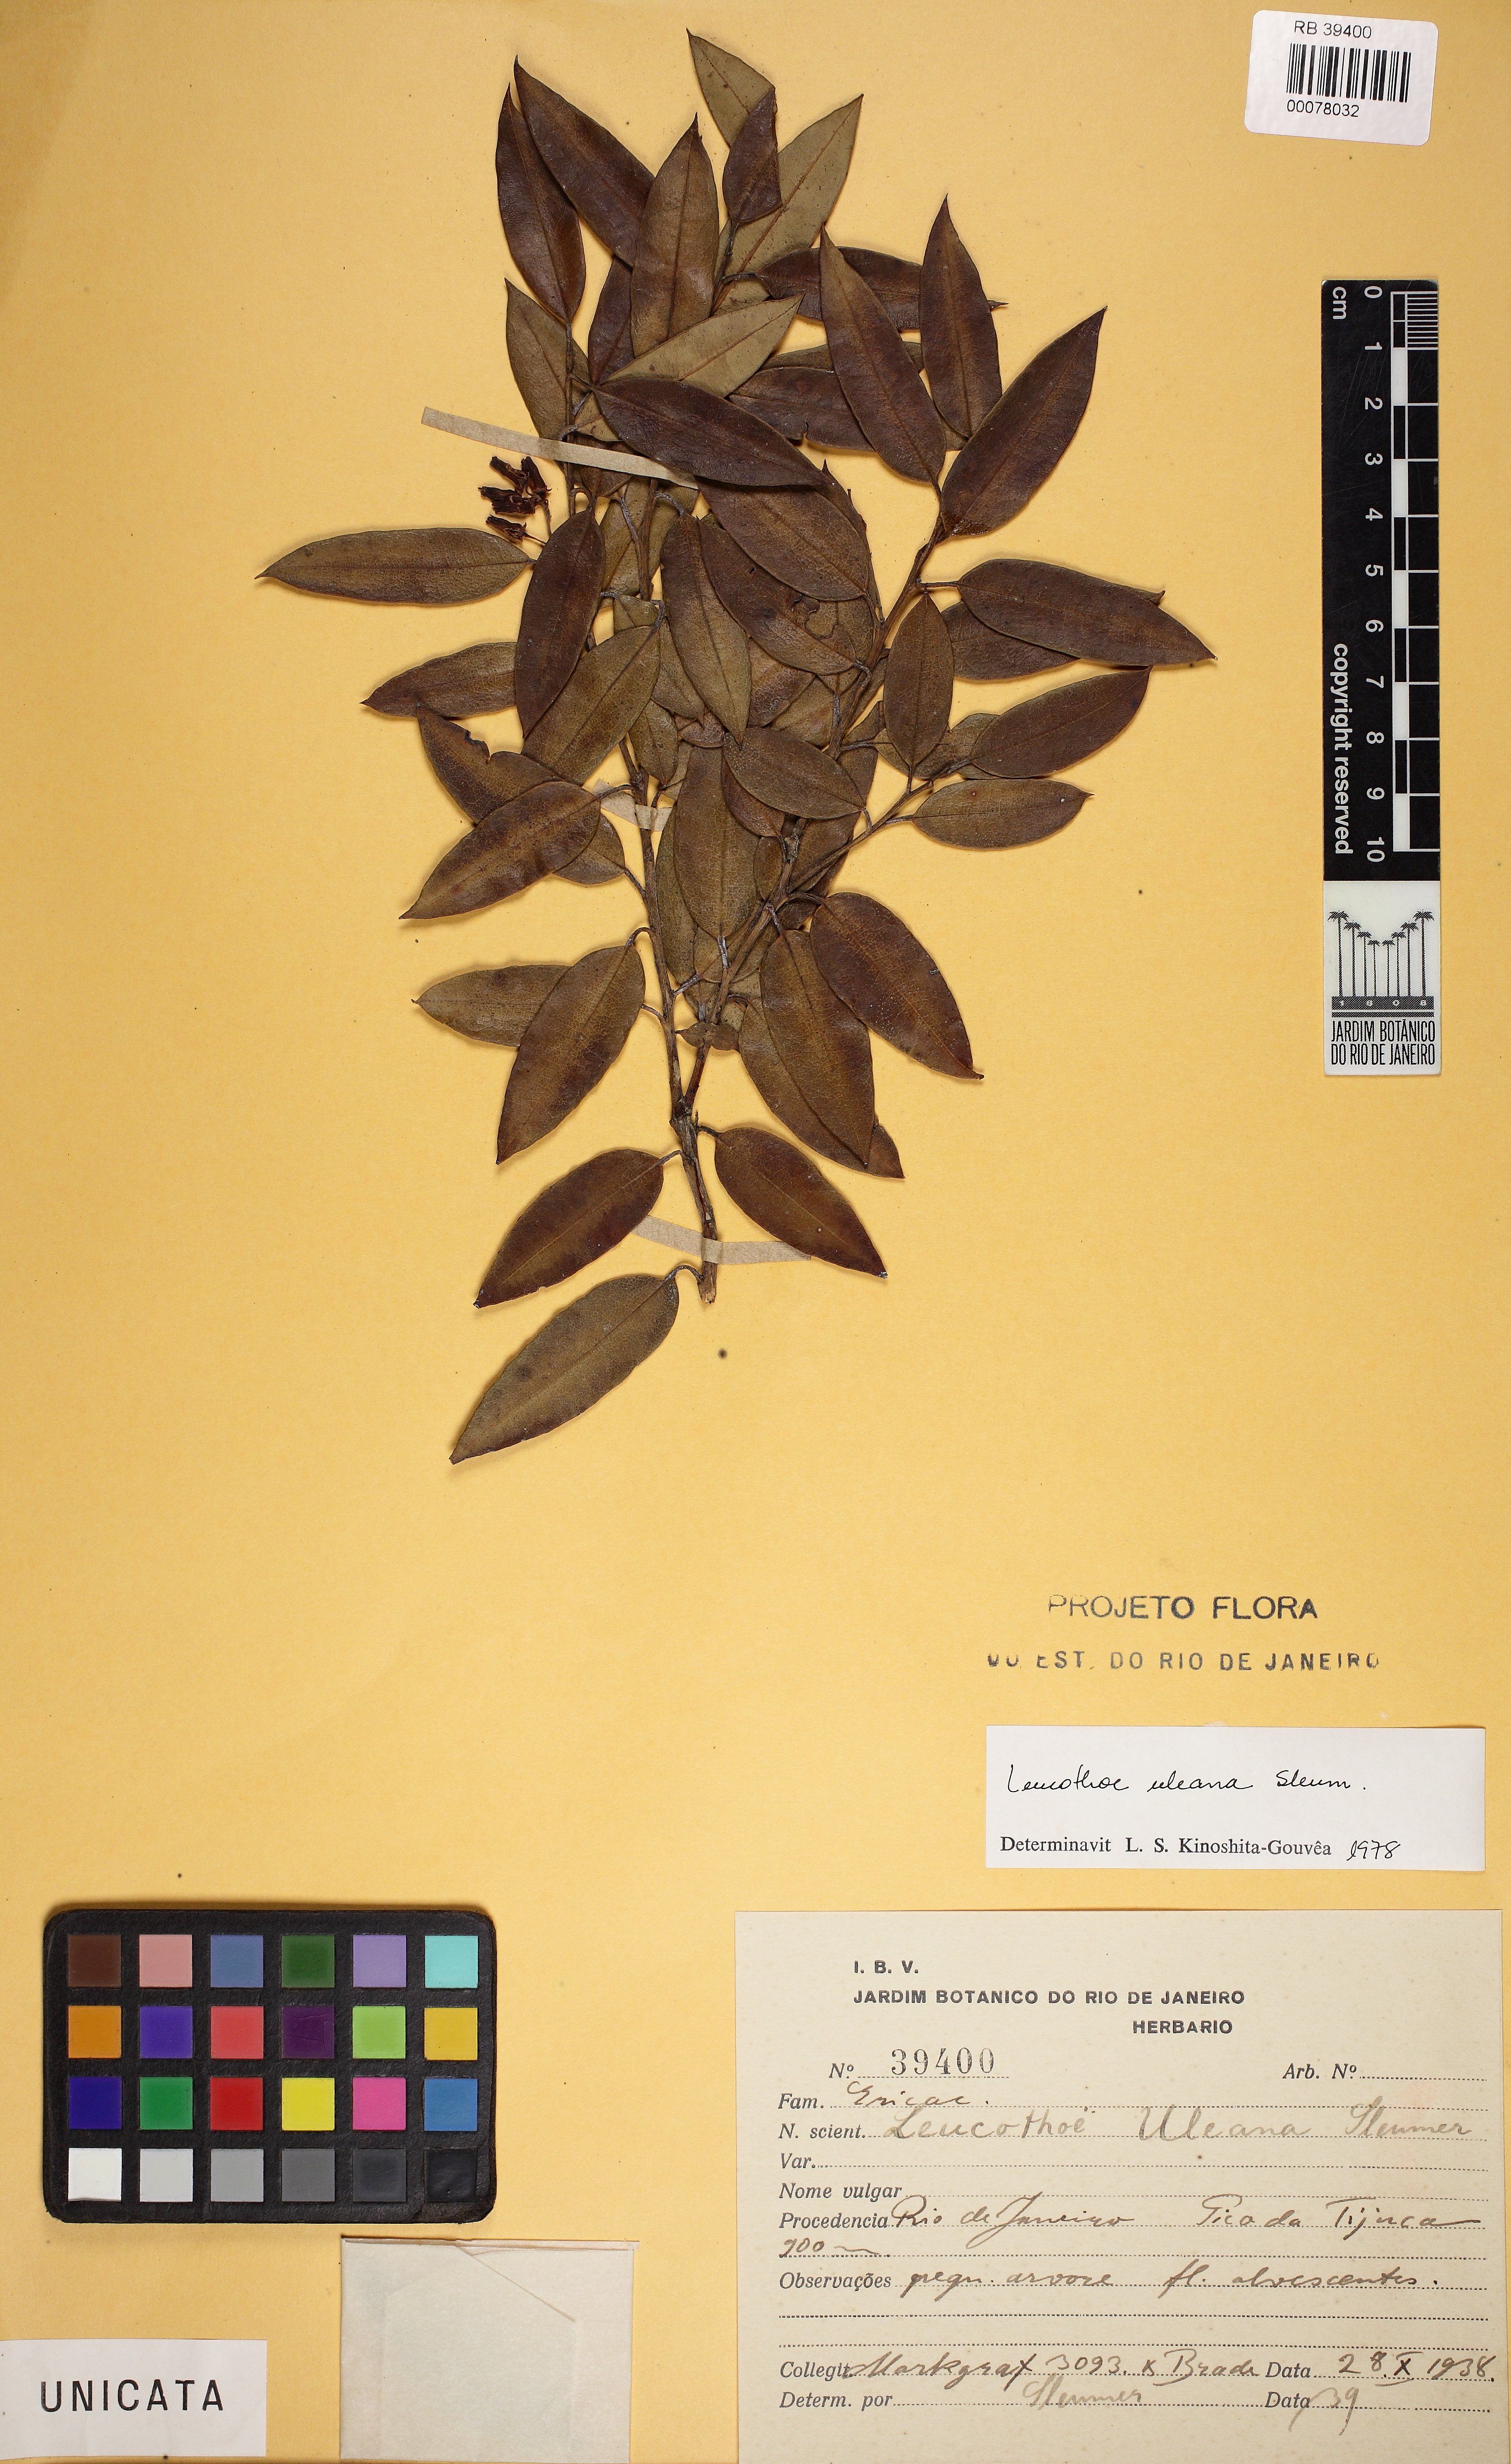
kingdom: Plantae
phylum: Tracheophyta
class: Magnoliopsida
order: Ericales
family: Ericaceae
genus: Agarista
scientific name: Agarista uleana
